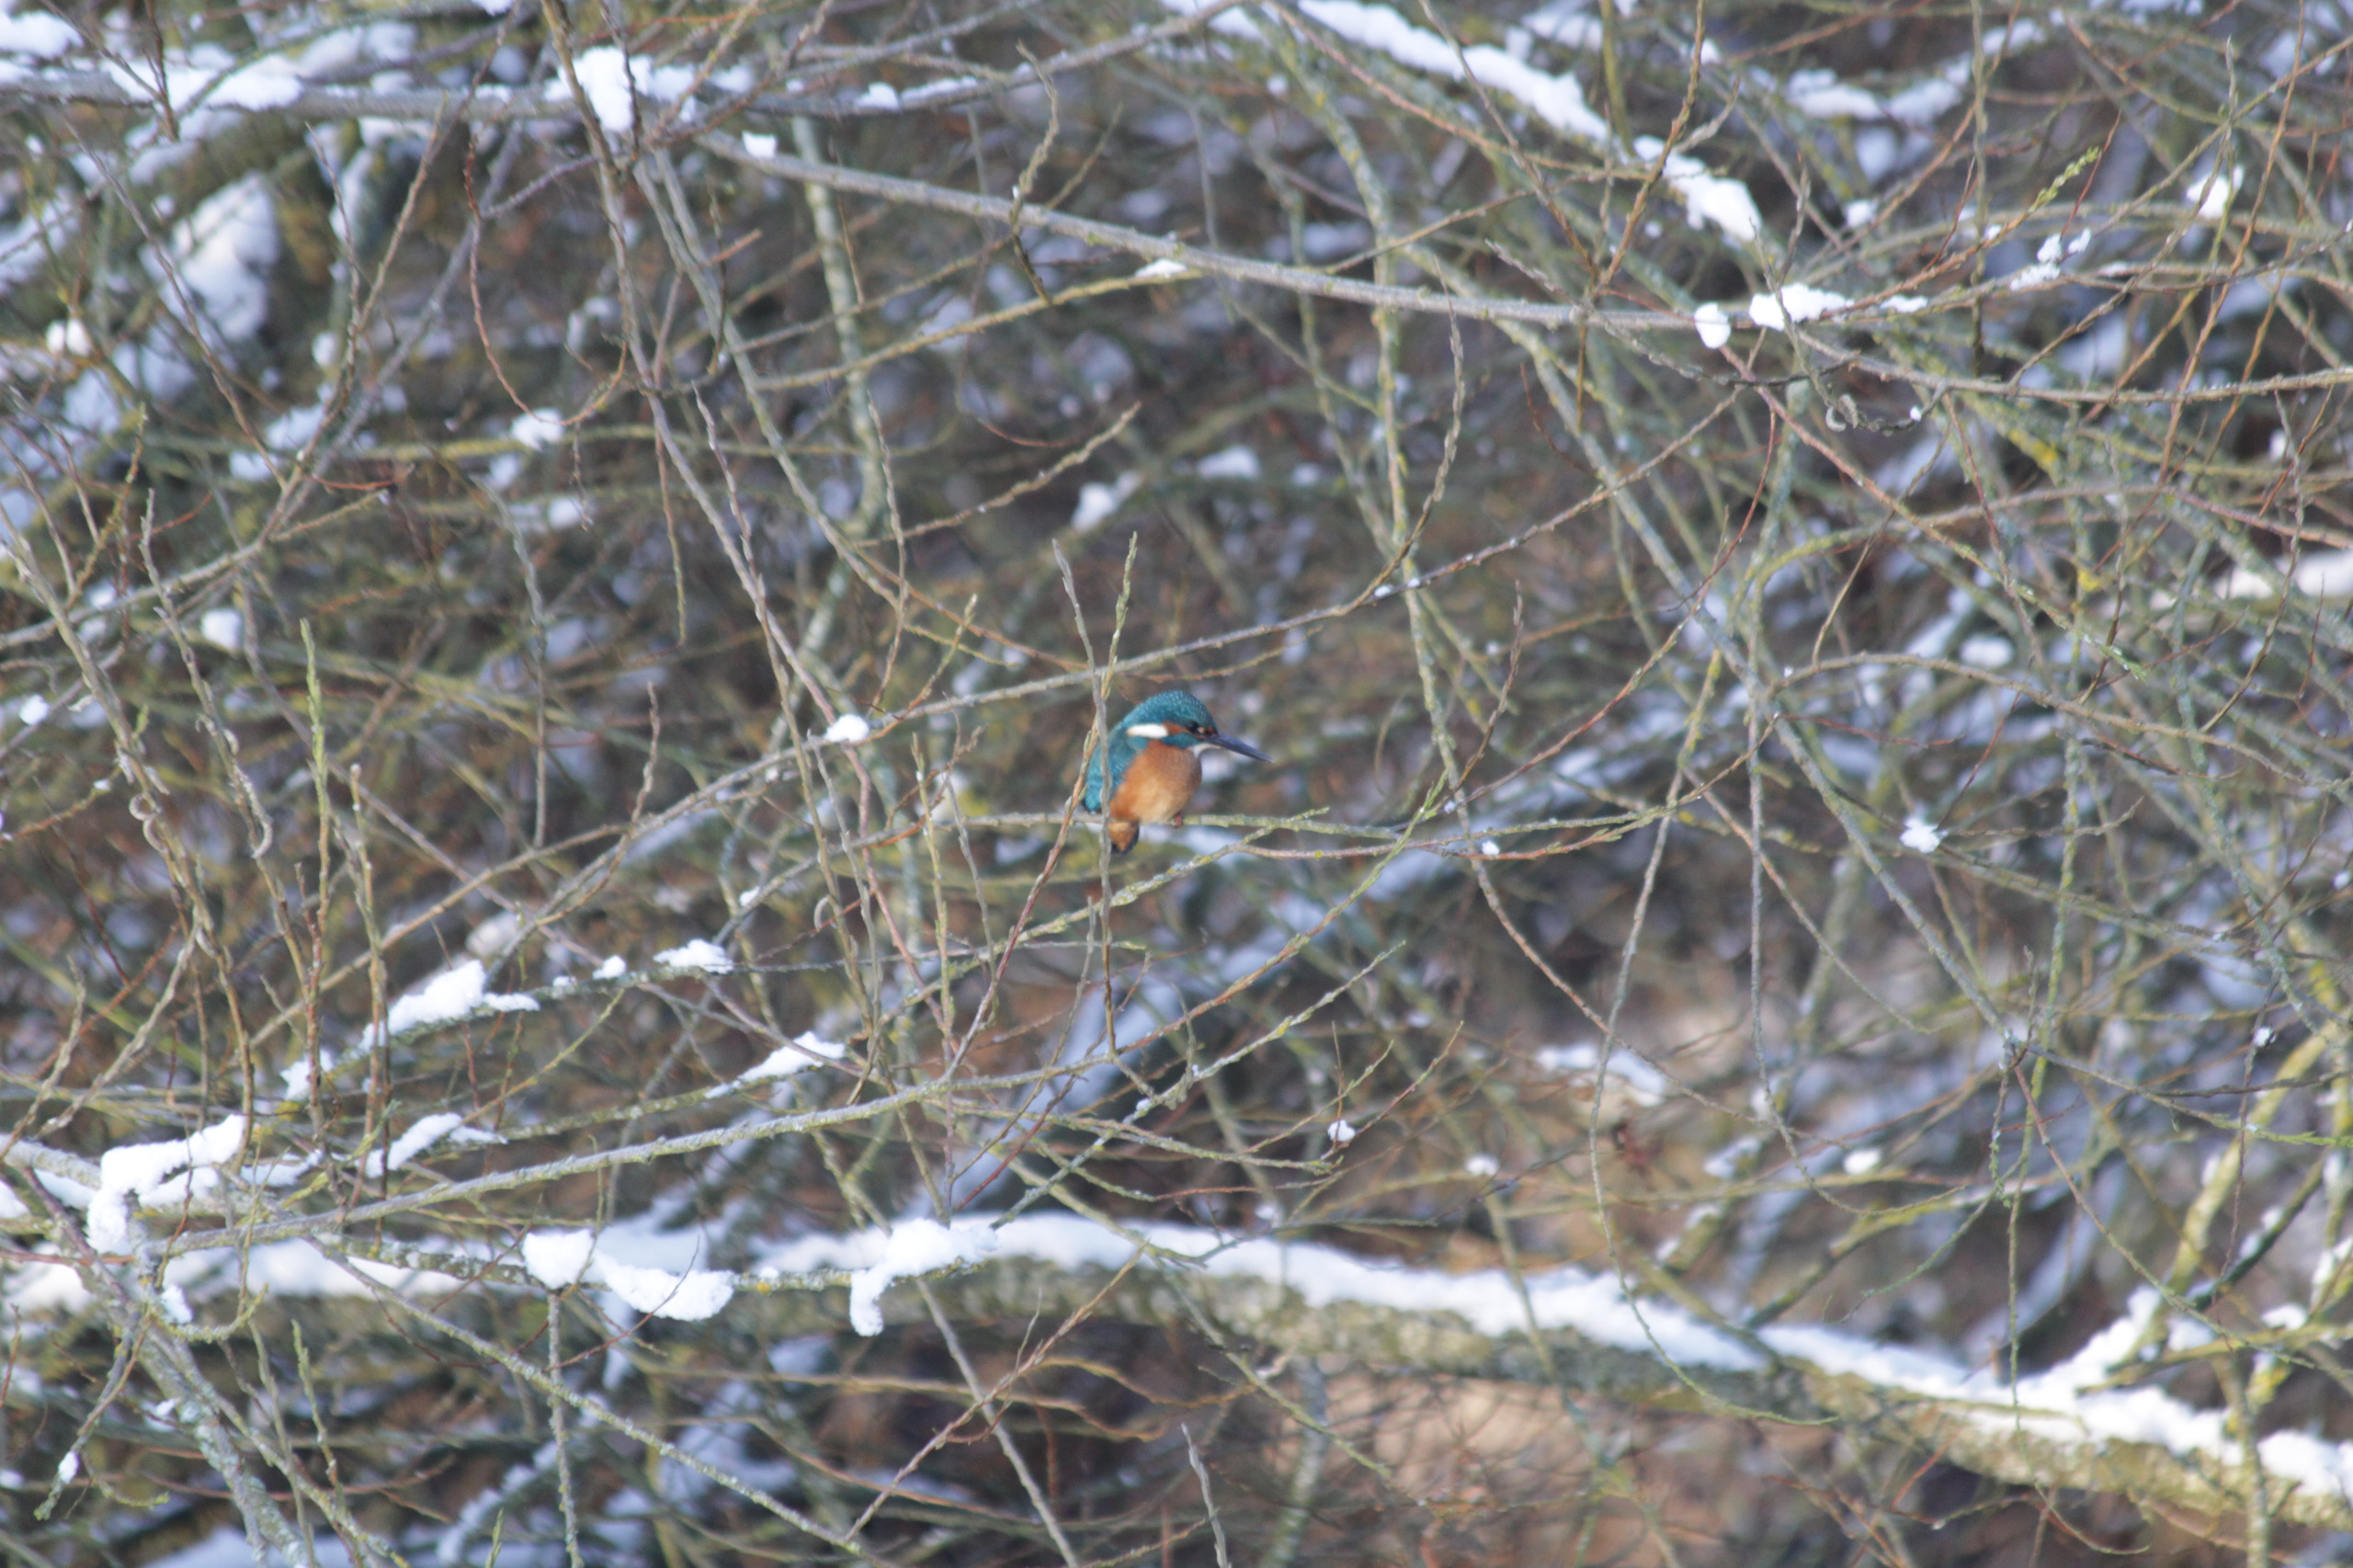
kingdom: Animalia
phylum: Chordata
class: Aves
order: Coraciiformes
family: Alcedinidae
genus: Alcedo
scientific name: Alcedo atthis
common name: Isfugl
